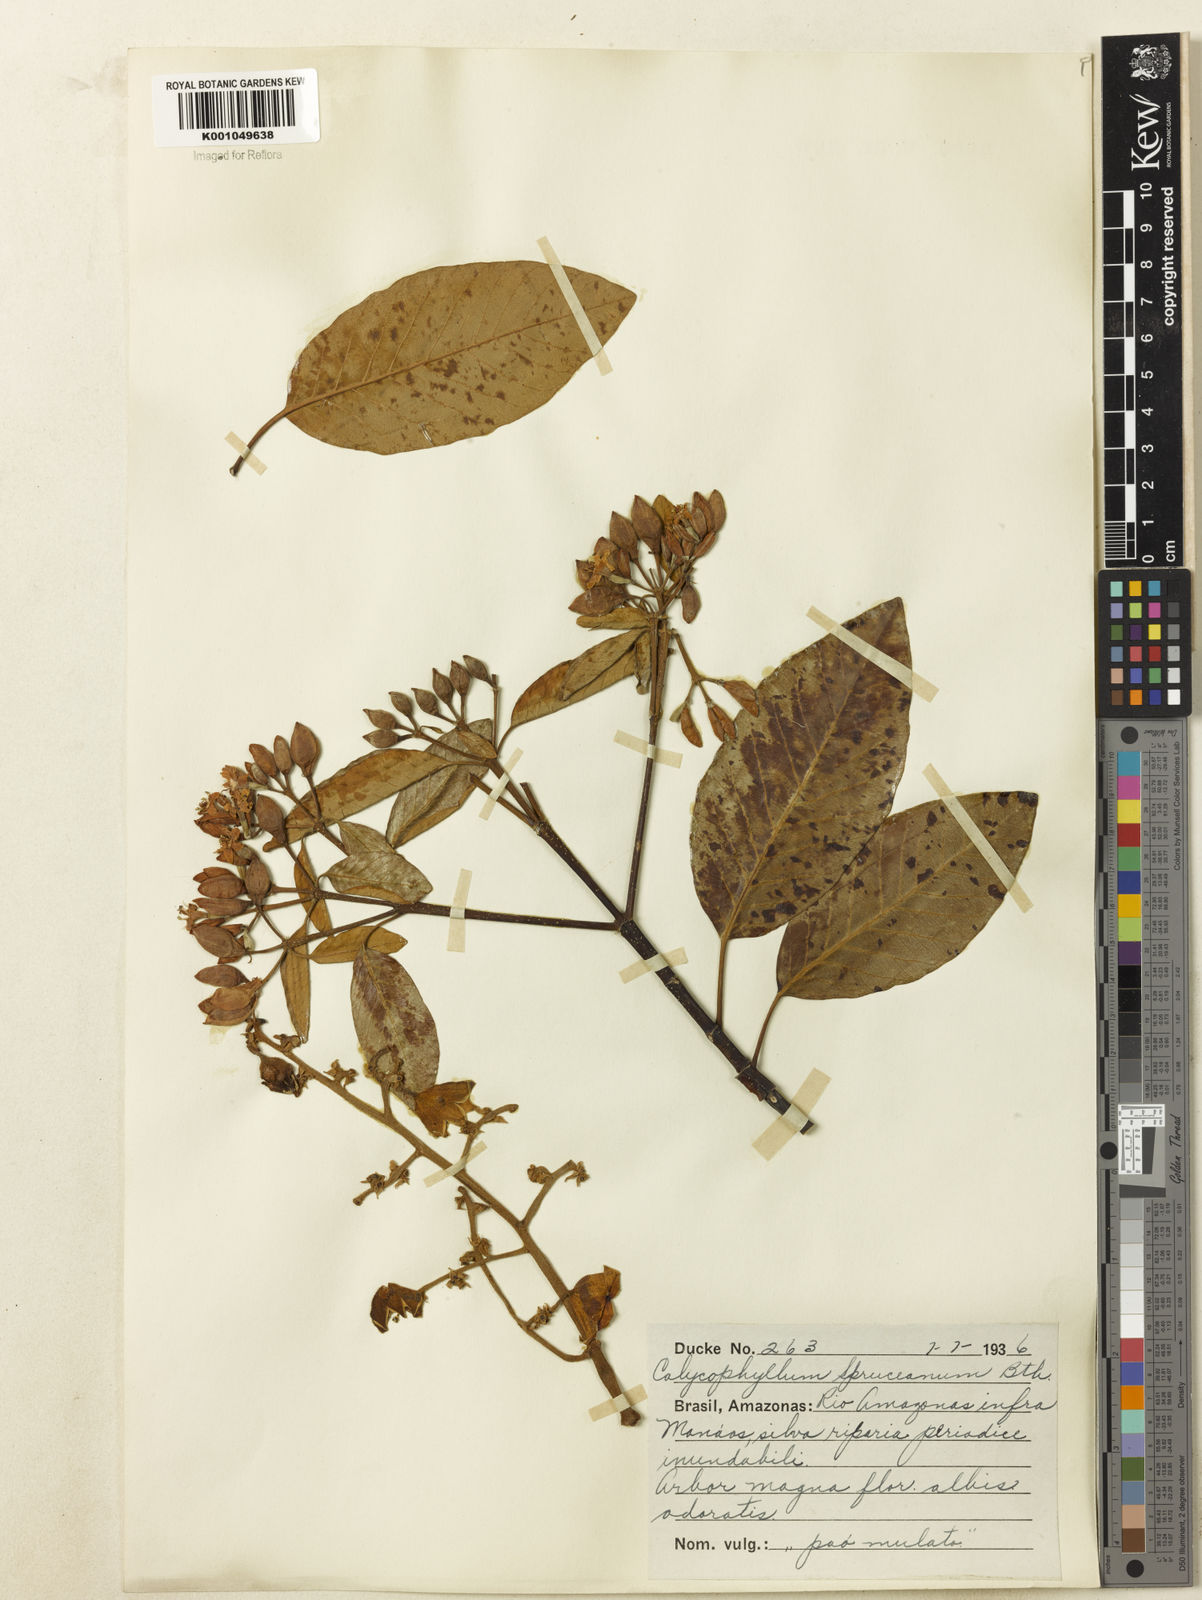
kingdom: Plantae
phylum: Tracheophyta
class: Magnoliopsida
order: Gentianales
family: Rubiaceae
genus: Calycophyllum
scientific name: Calycophyllum spruceanum
